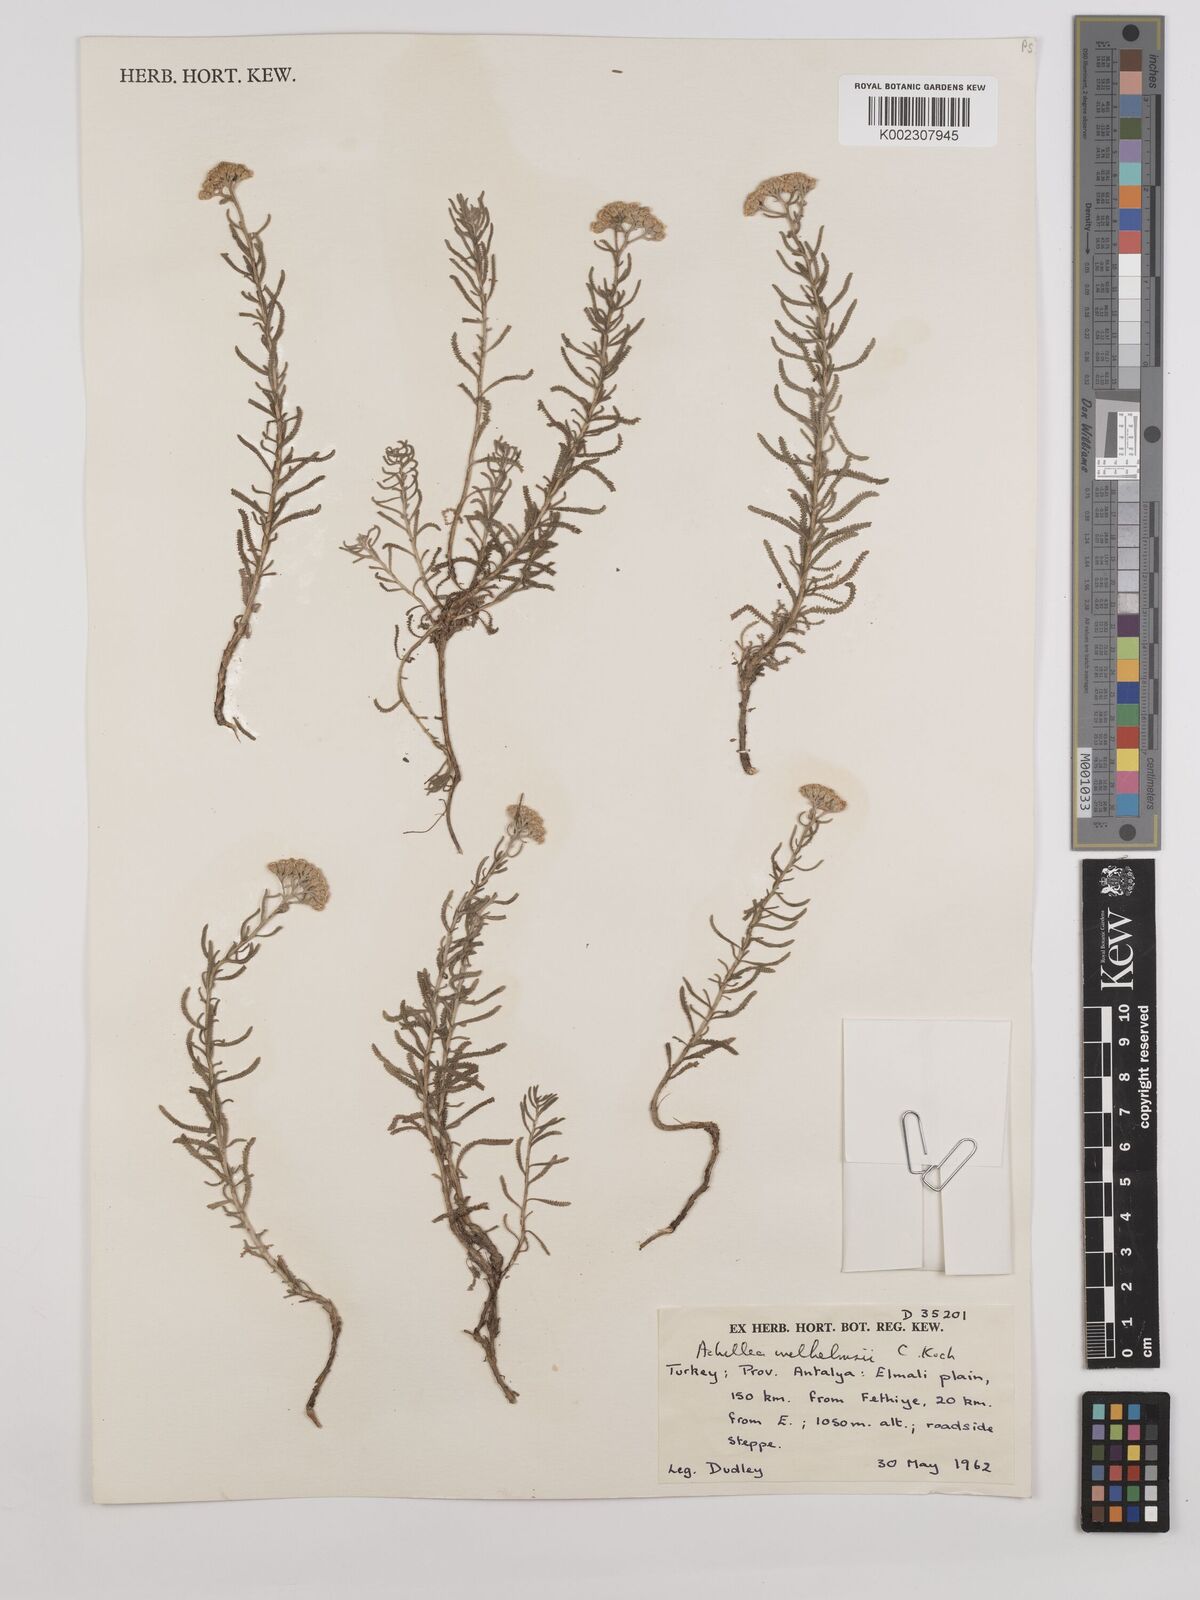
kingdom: Plantae
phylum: Tracheophyta
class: Magnoliopsida
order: Asterales
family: Asteraceae
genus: Achillea
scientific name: Achillea tenuifolia
